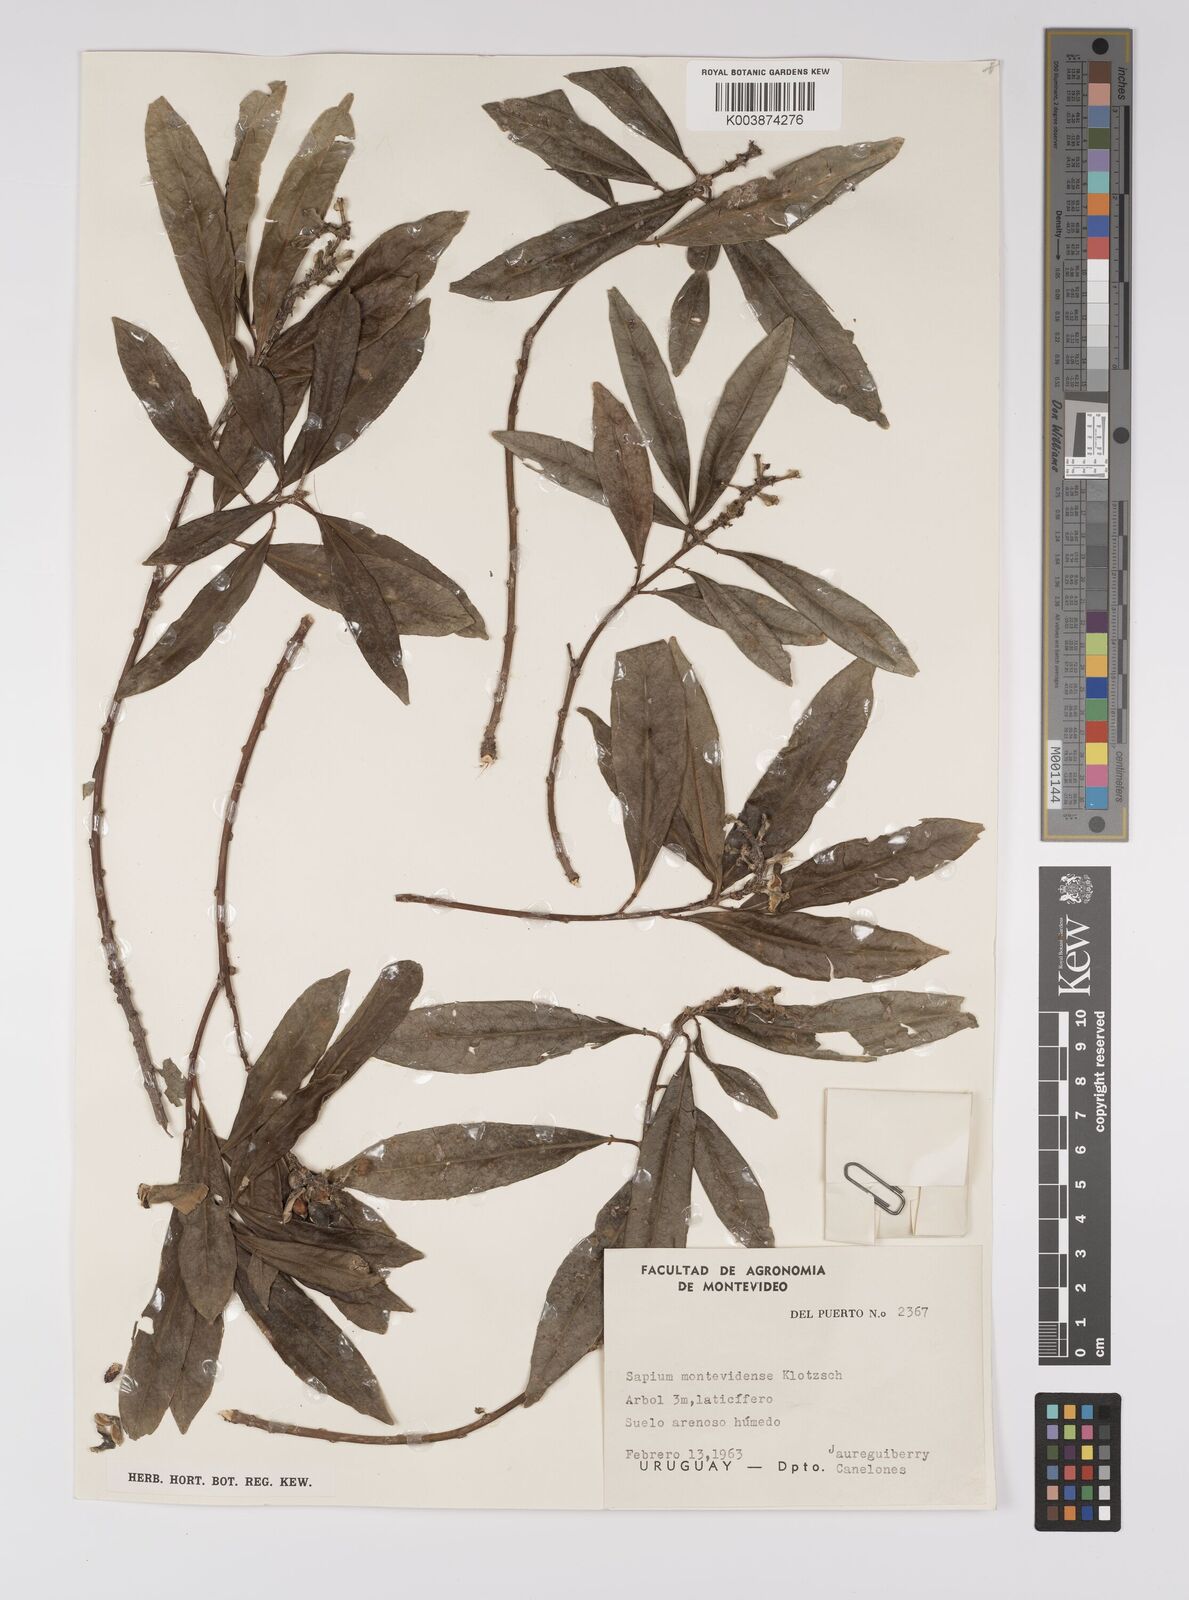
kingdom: Plantae
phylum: Tracheophyta
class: Magnoliopsida
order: Malpighiales
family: Euphorbiaceae
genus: Sapium
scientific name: Sapium glandulosum
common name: Milktree
